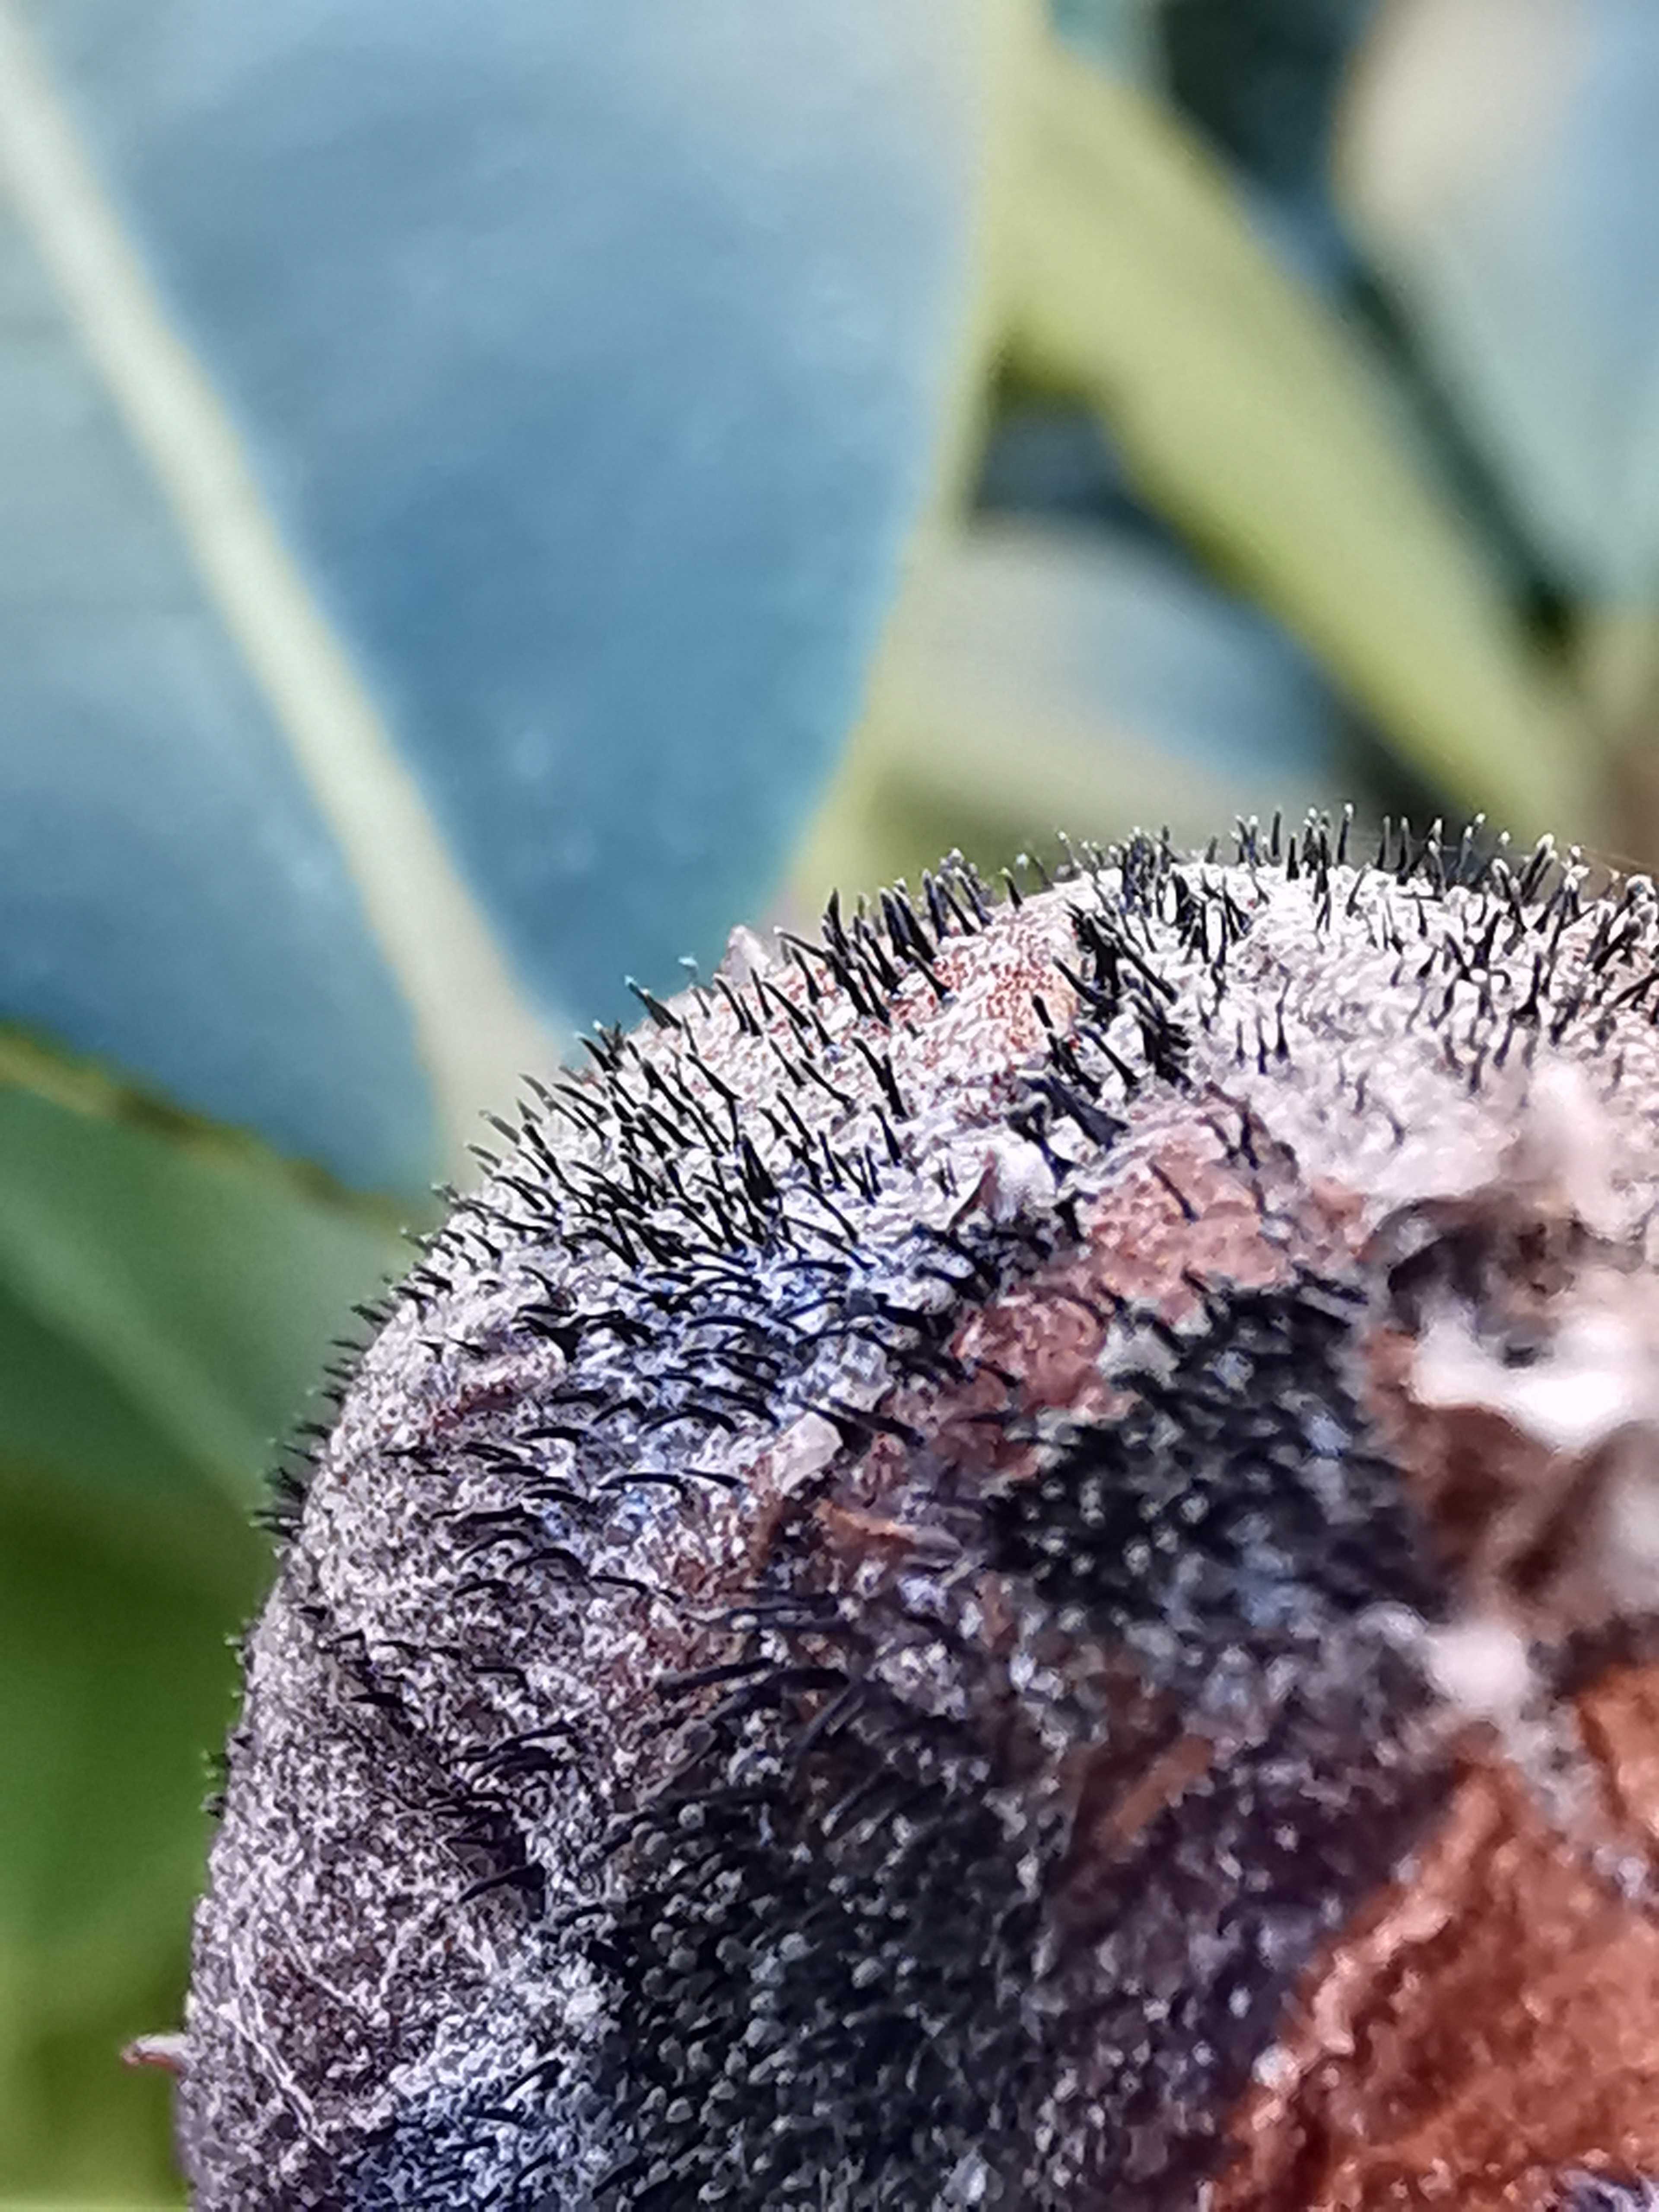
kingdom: Fungi
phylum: Ascomycota
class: Dothideomycetes
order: Pleosporales
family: Melanommataceae
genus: Seifertia
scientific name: Seifertia azaleae
